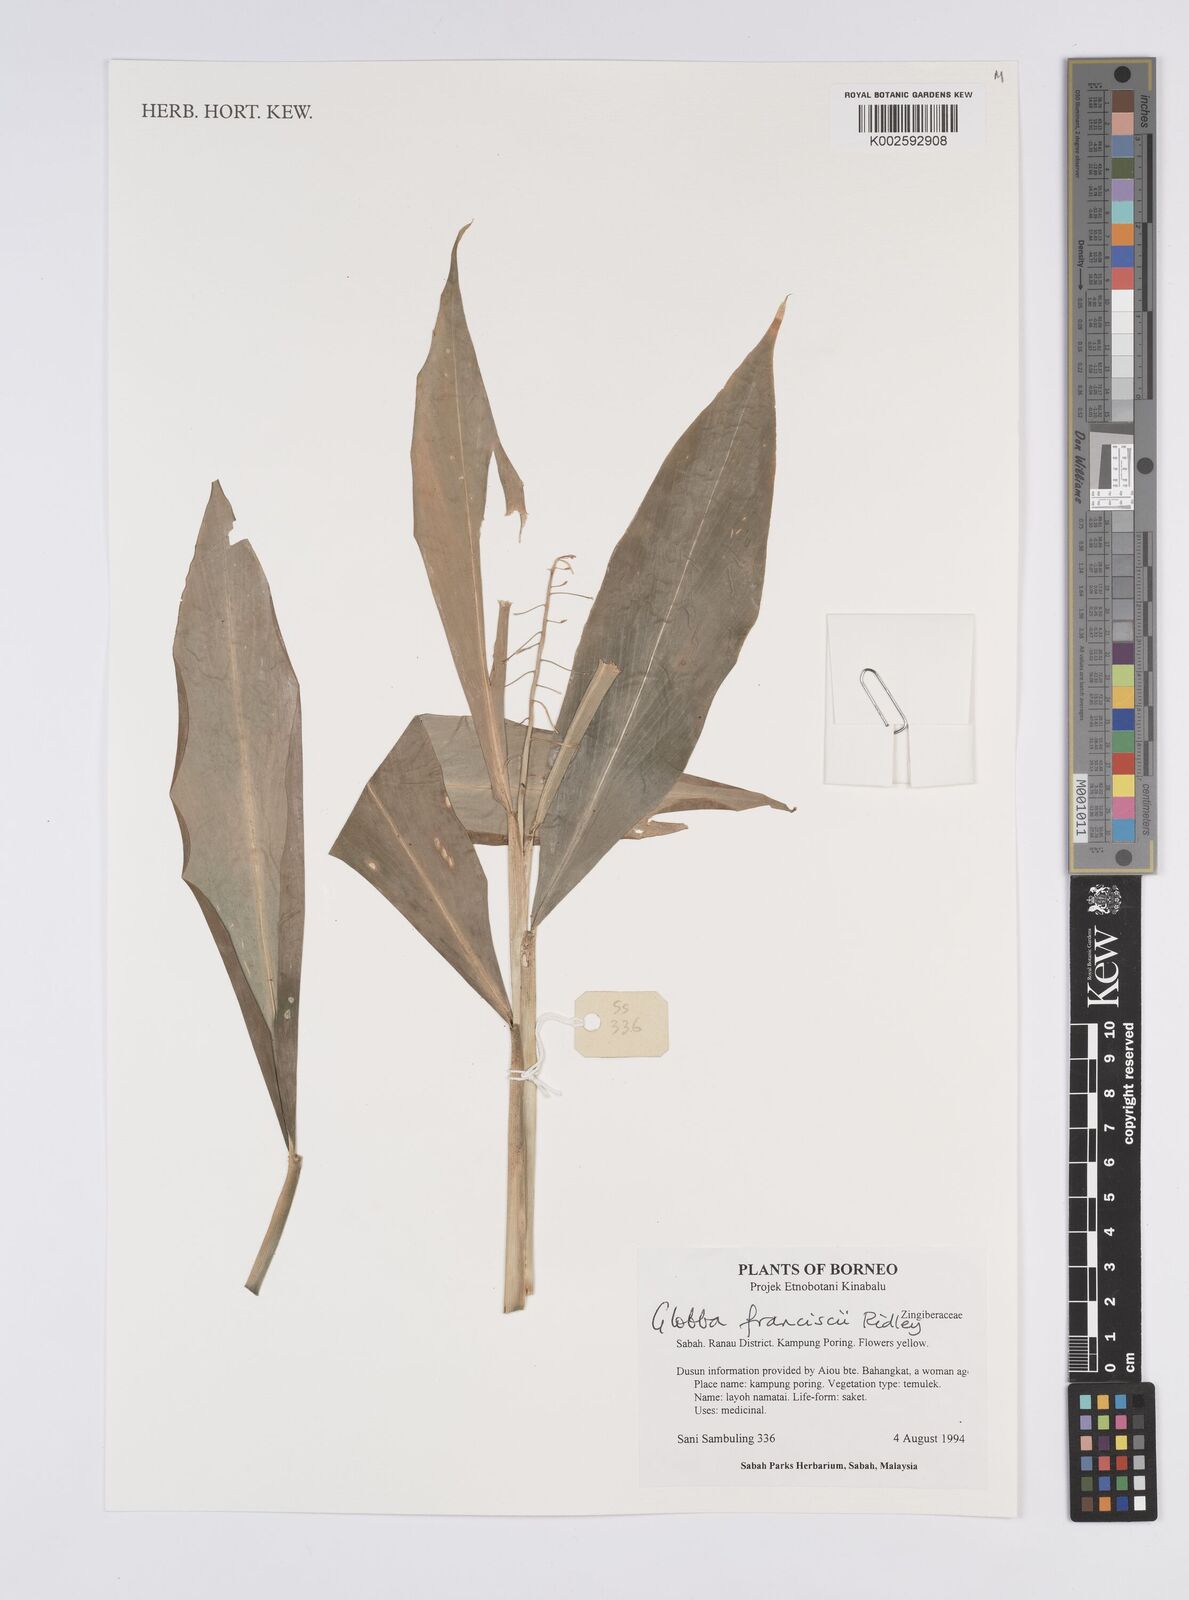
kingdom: Plantae
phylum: Tracheophyta
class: Liliopsida
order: Zingiberales
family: Zingiberaceae
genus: Globba
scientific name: Globba francisci
